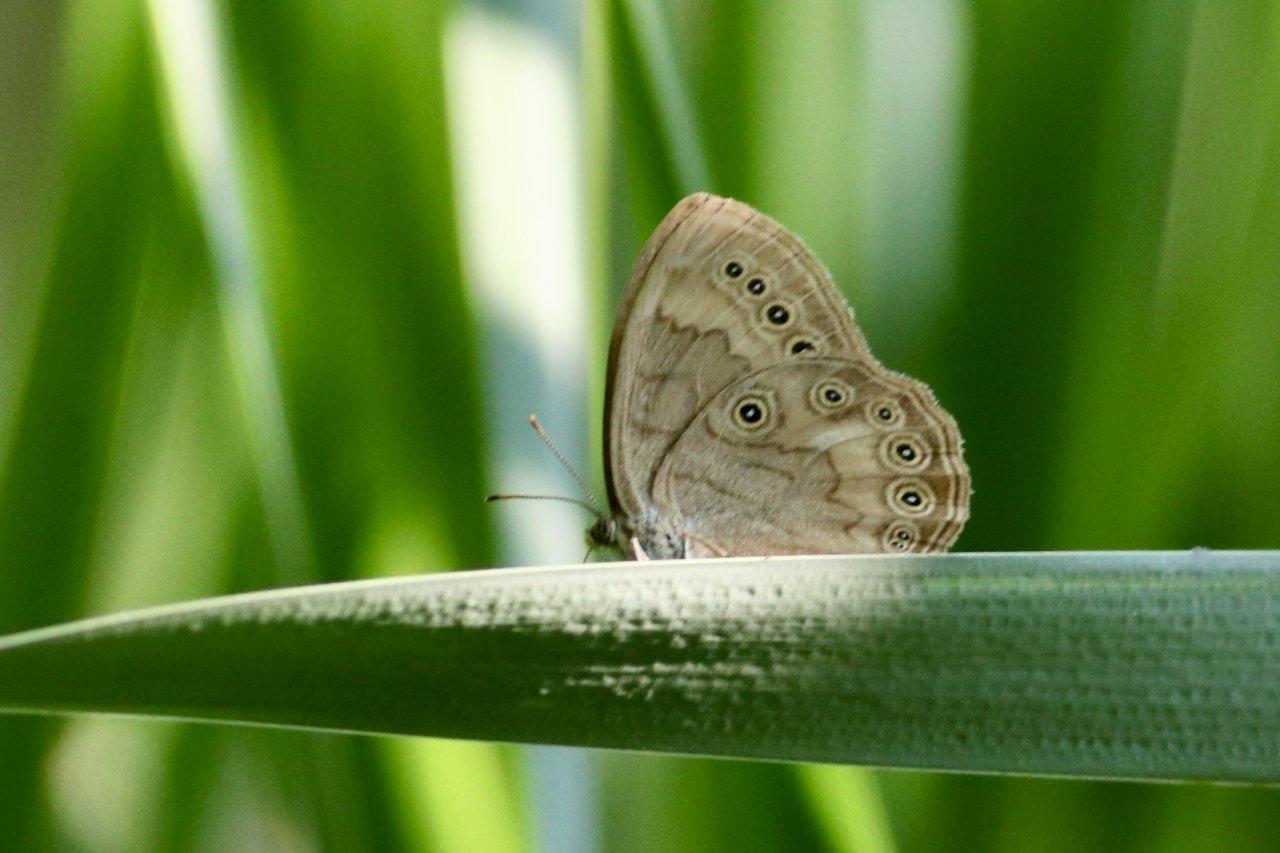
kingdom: Animalia
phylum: Arthropoda
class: Insecta
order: Lepidoptera
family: Nymphalidae
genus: Lethe
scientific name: Lethe eurydice
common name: Eyed Brown
